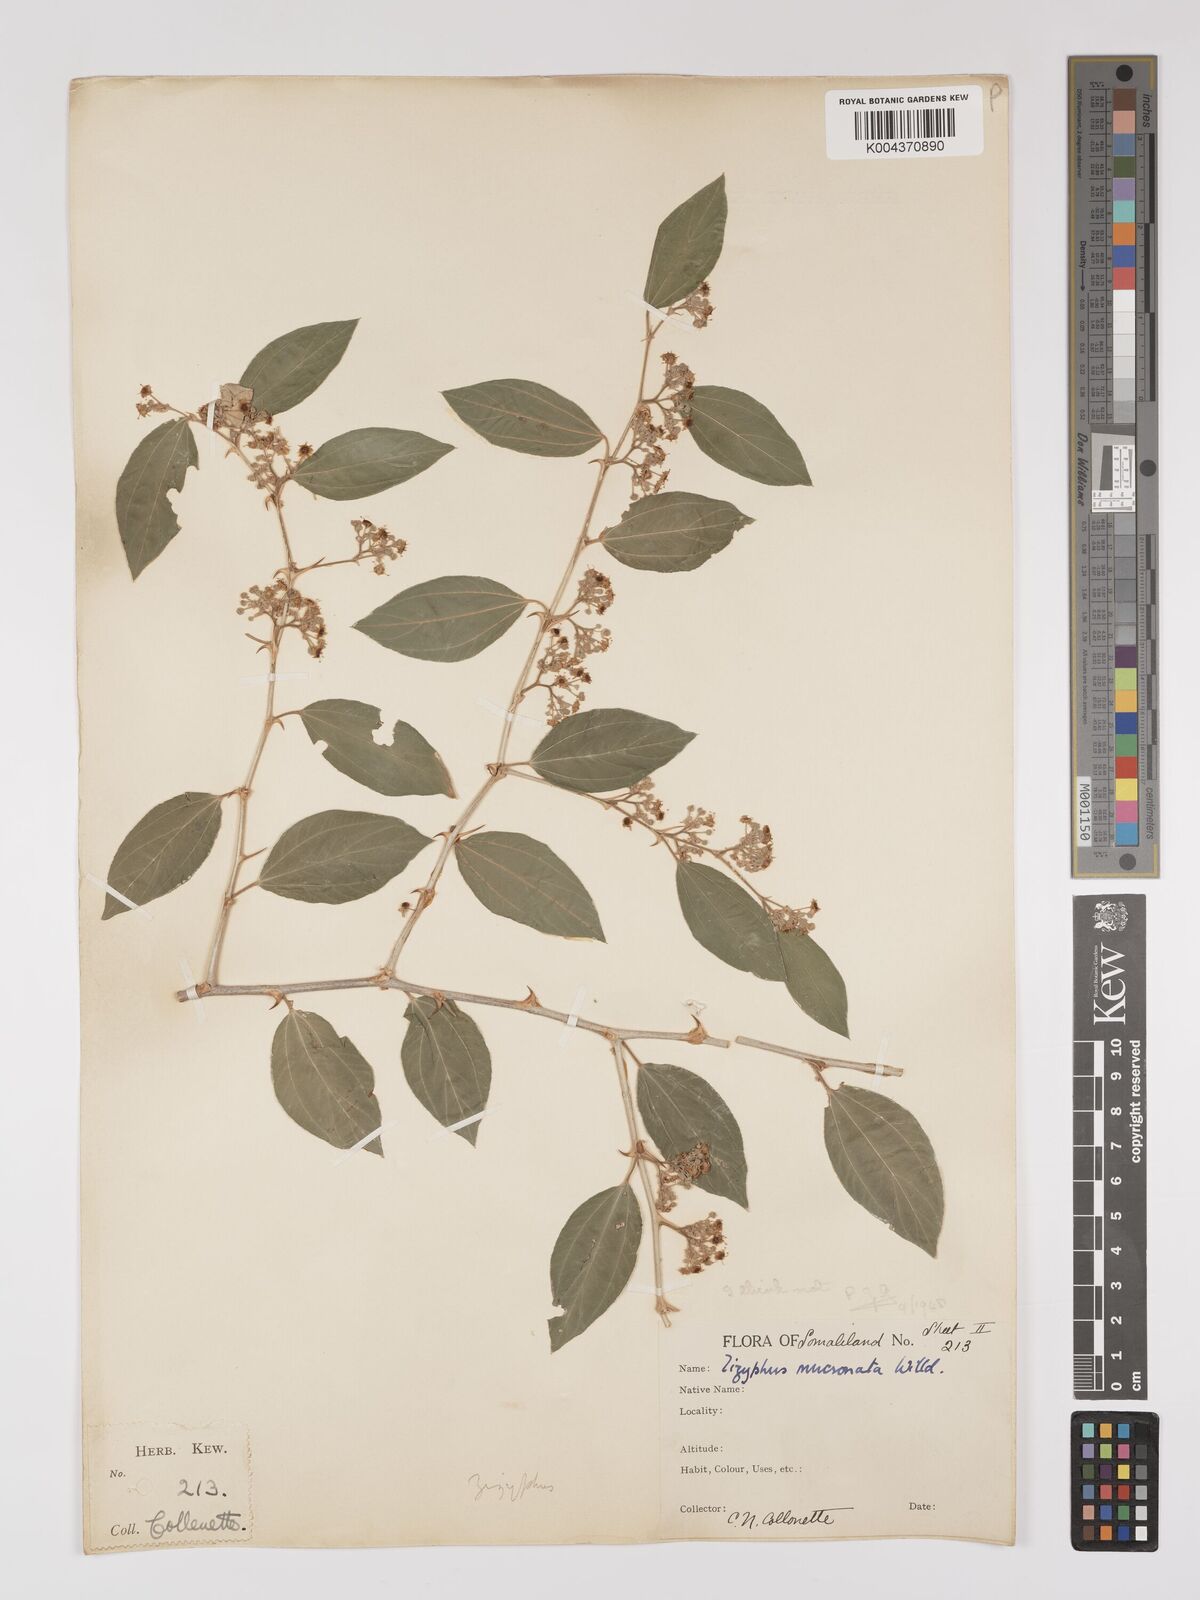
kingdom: Plantae
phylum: Tracheophyta
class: Magnoliopsida
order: Rosales
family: Rhamnaceae
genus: Ziziphus
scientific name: Ziziphus spina-christi
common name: Syrian christ-thorn
